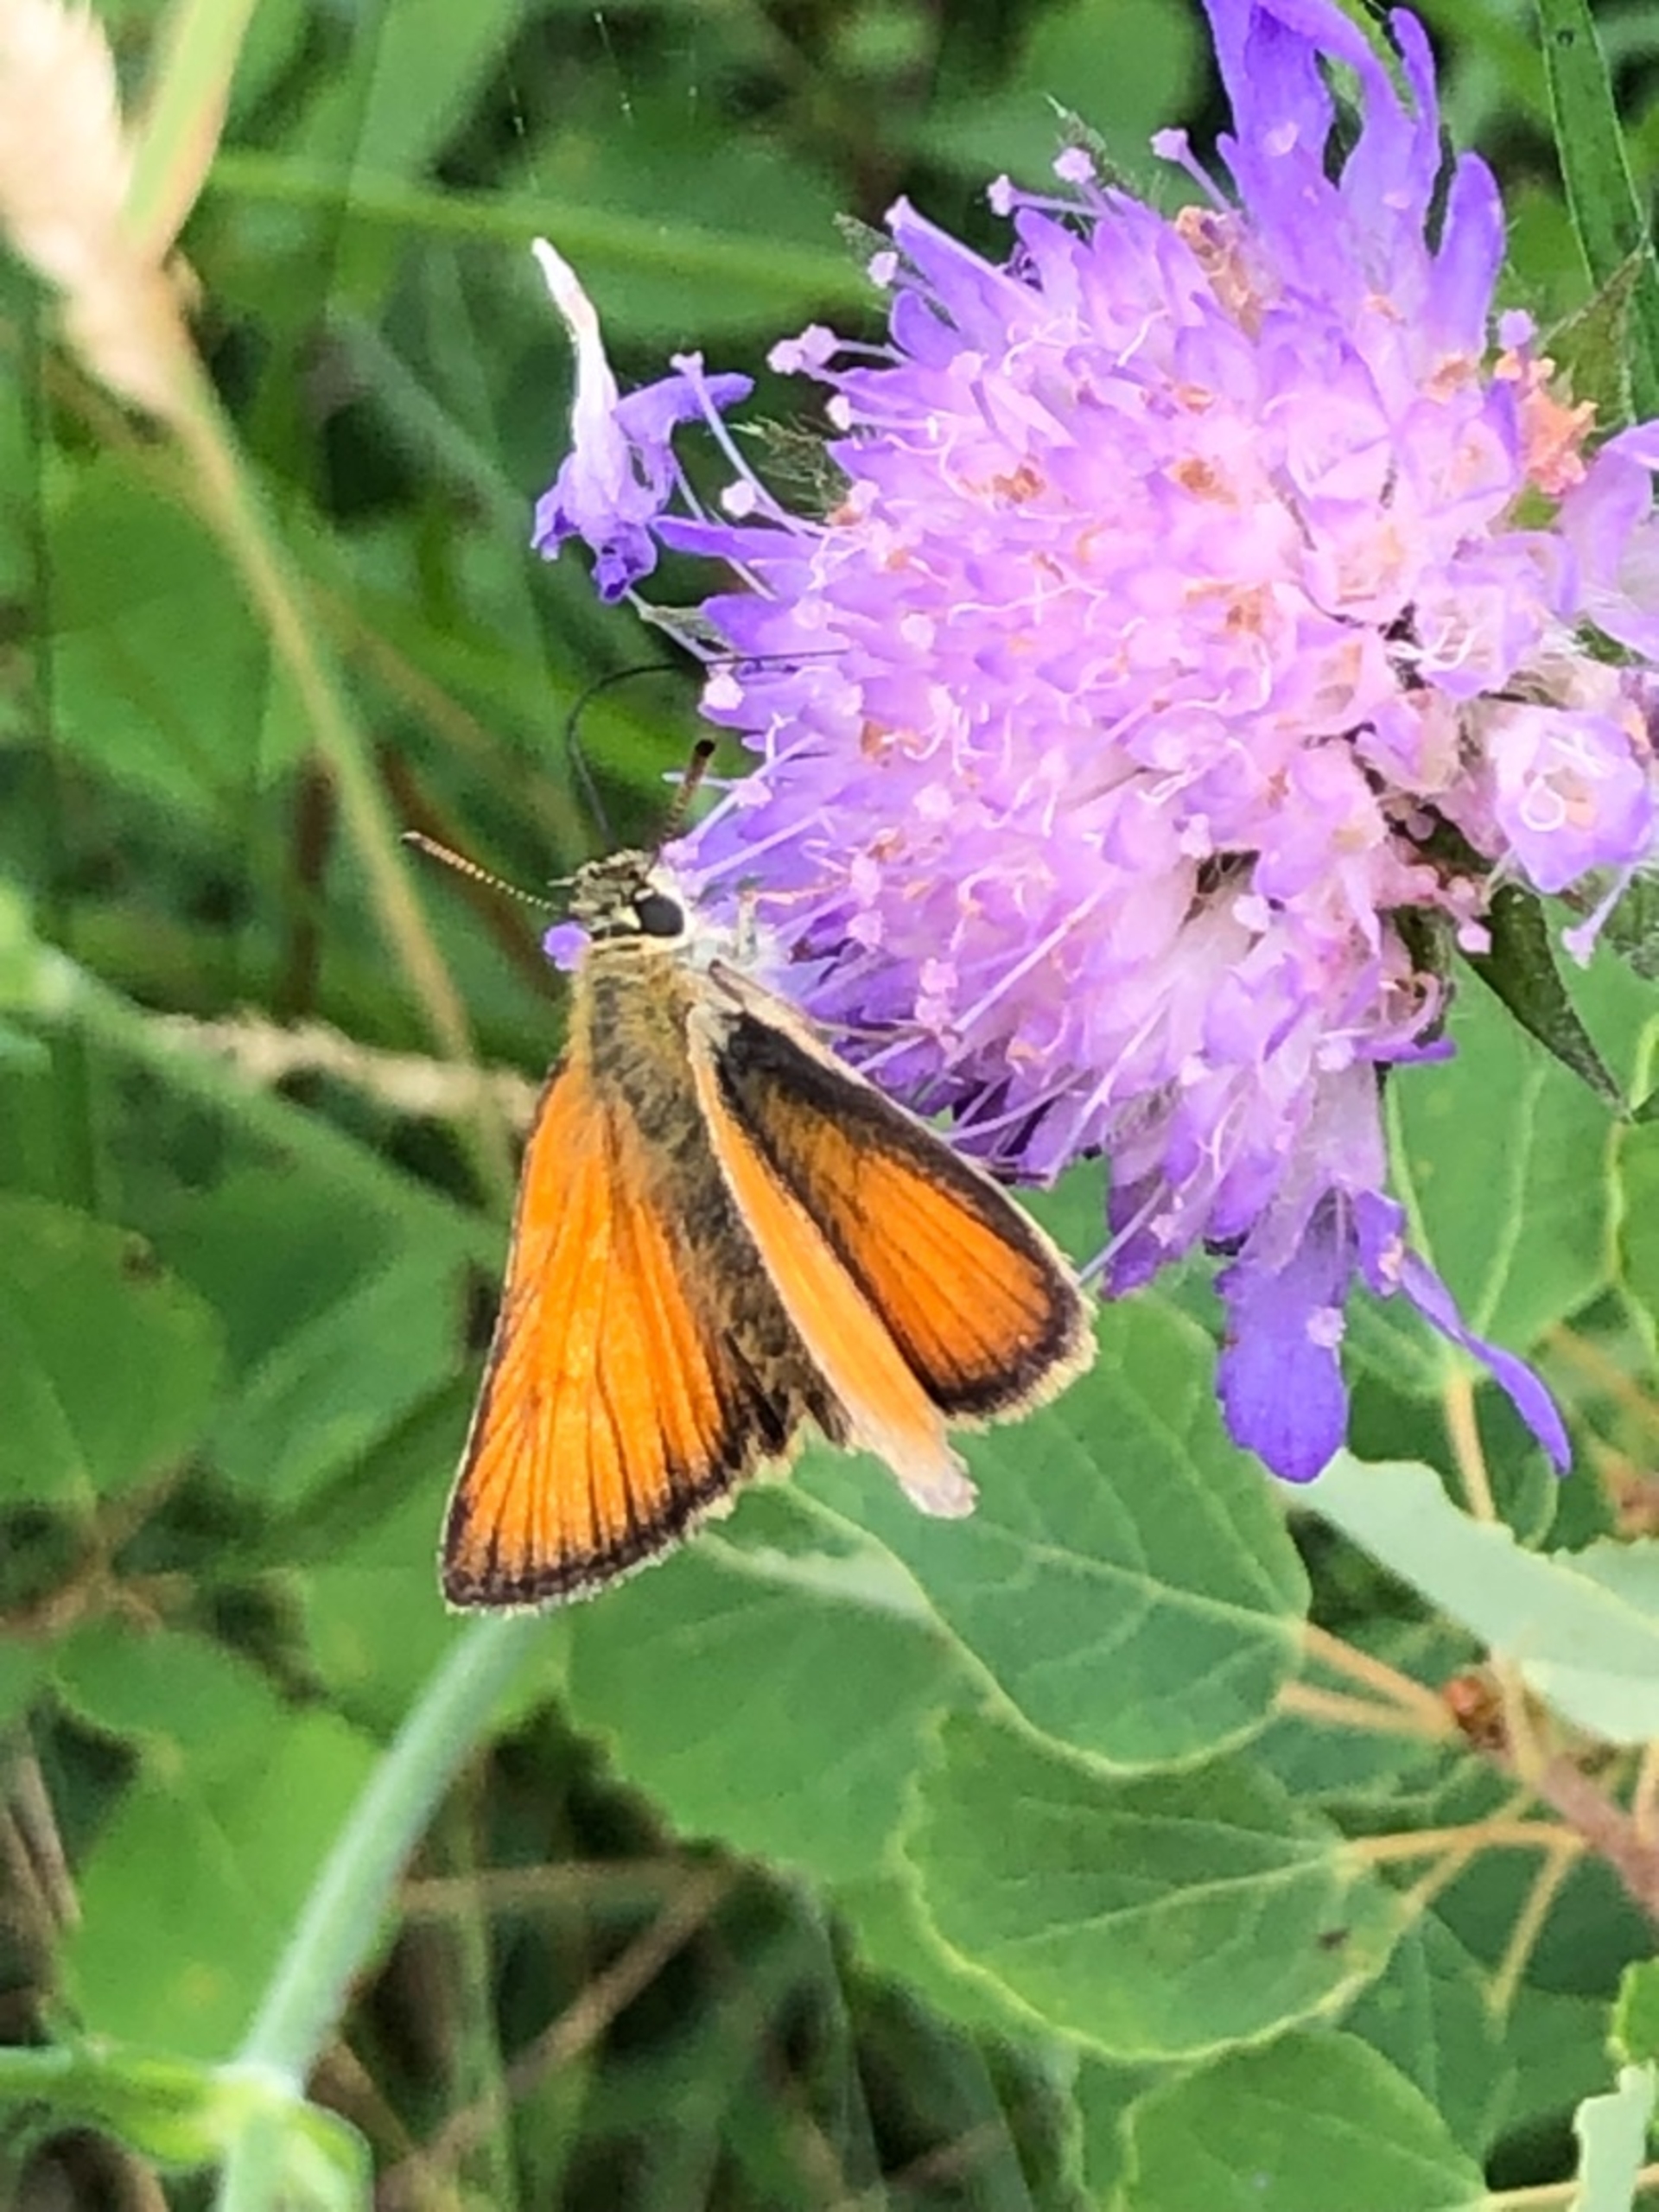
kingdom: Animalia
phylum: Arthropoda
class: Insecta
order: Lepidoptera
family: Hesperiidae
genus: Thymelicus
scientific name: Thymelicus sylvestris
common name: Skråstregbredpande
